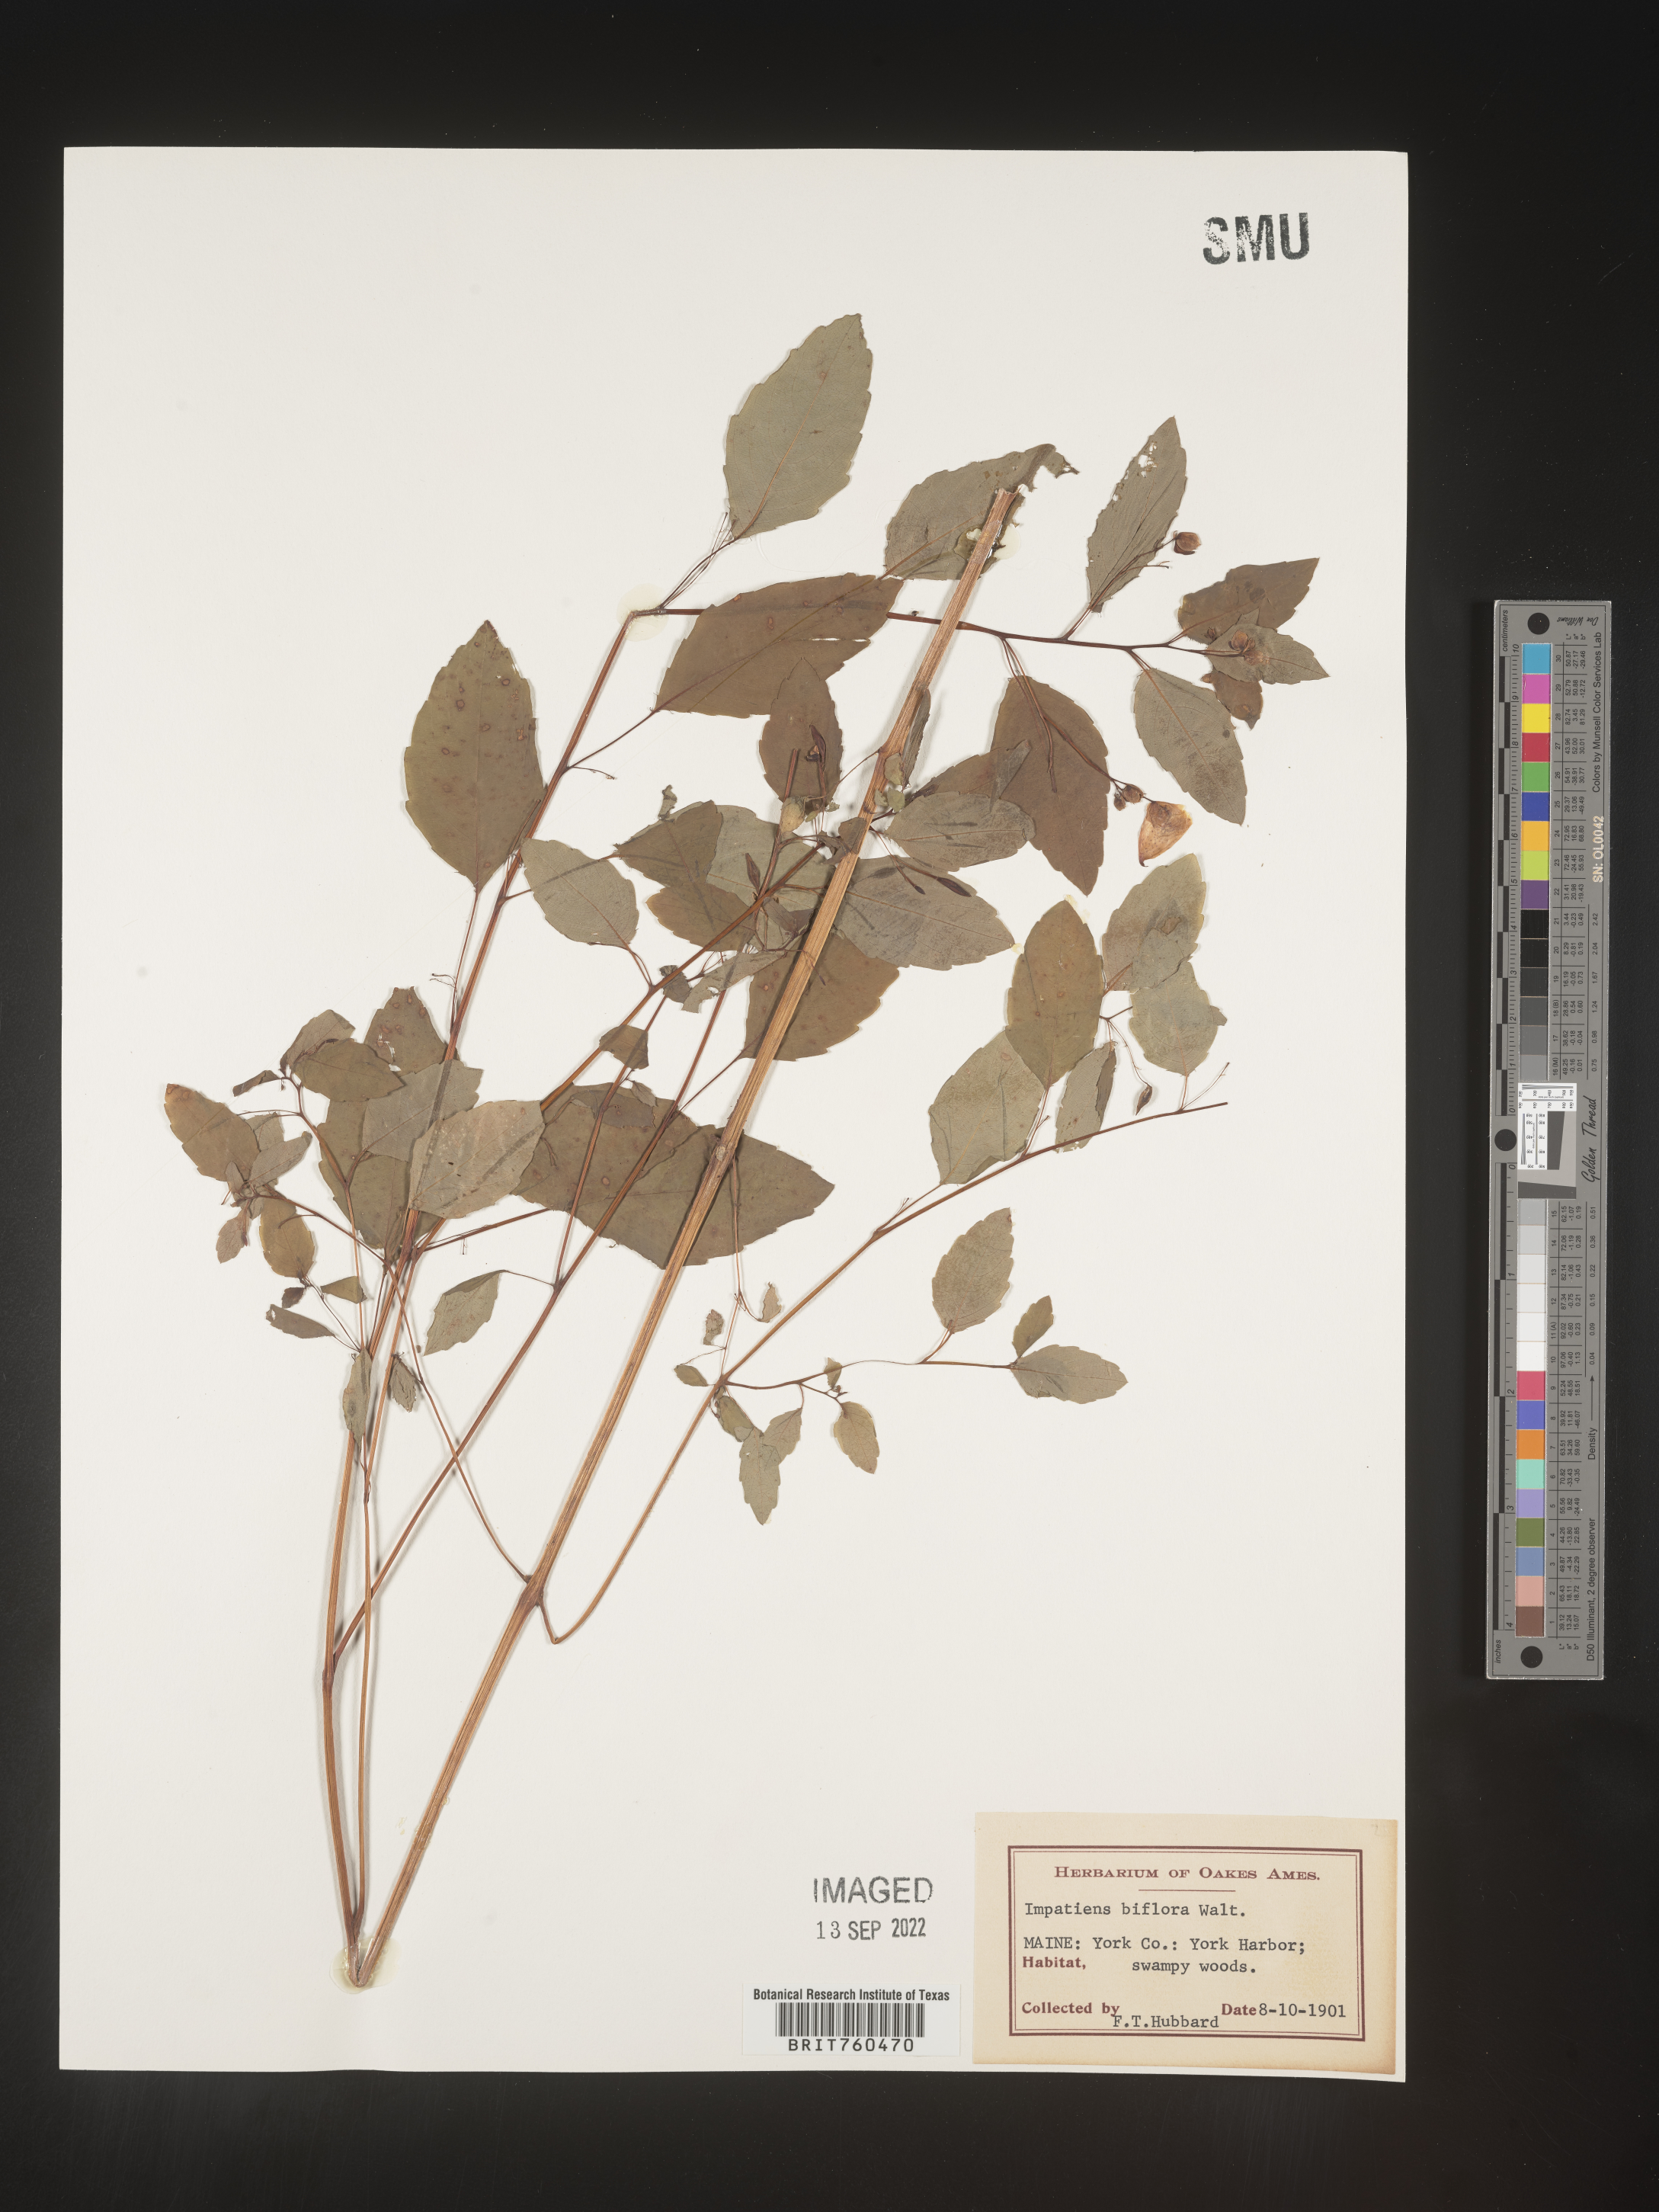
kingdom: Plantae
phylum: Tracheophyta
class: Magnoliopsida
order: Ericales
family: Balsaminaceae
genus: Impatiens
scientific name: Impatiens capensis
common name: Orange balsam
